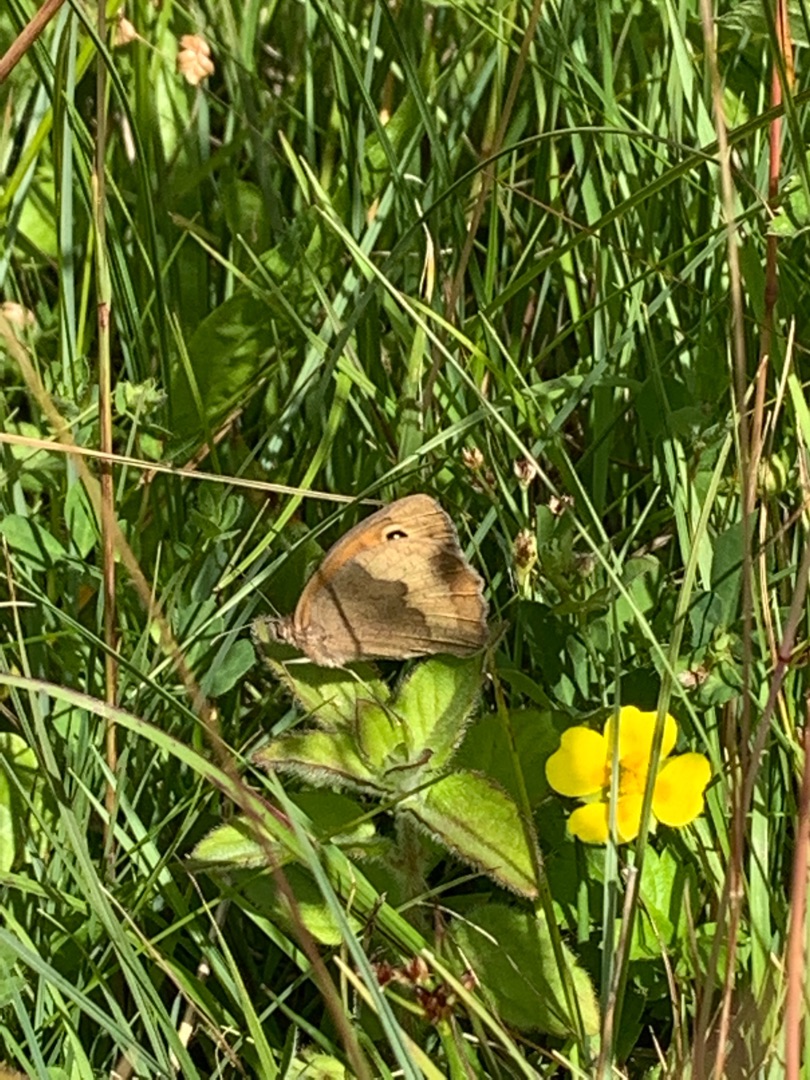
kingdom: Animalia
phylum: Arthropoda
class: Insecta
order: Lepidoptera
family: Nymphalidae
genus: Maniola
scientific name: Maniola jurtina
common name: Græsrandøje
